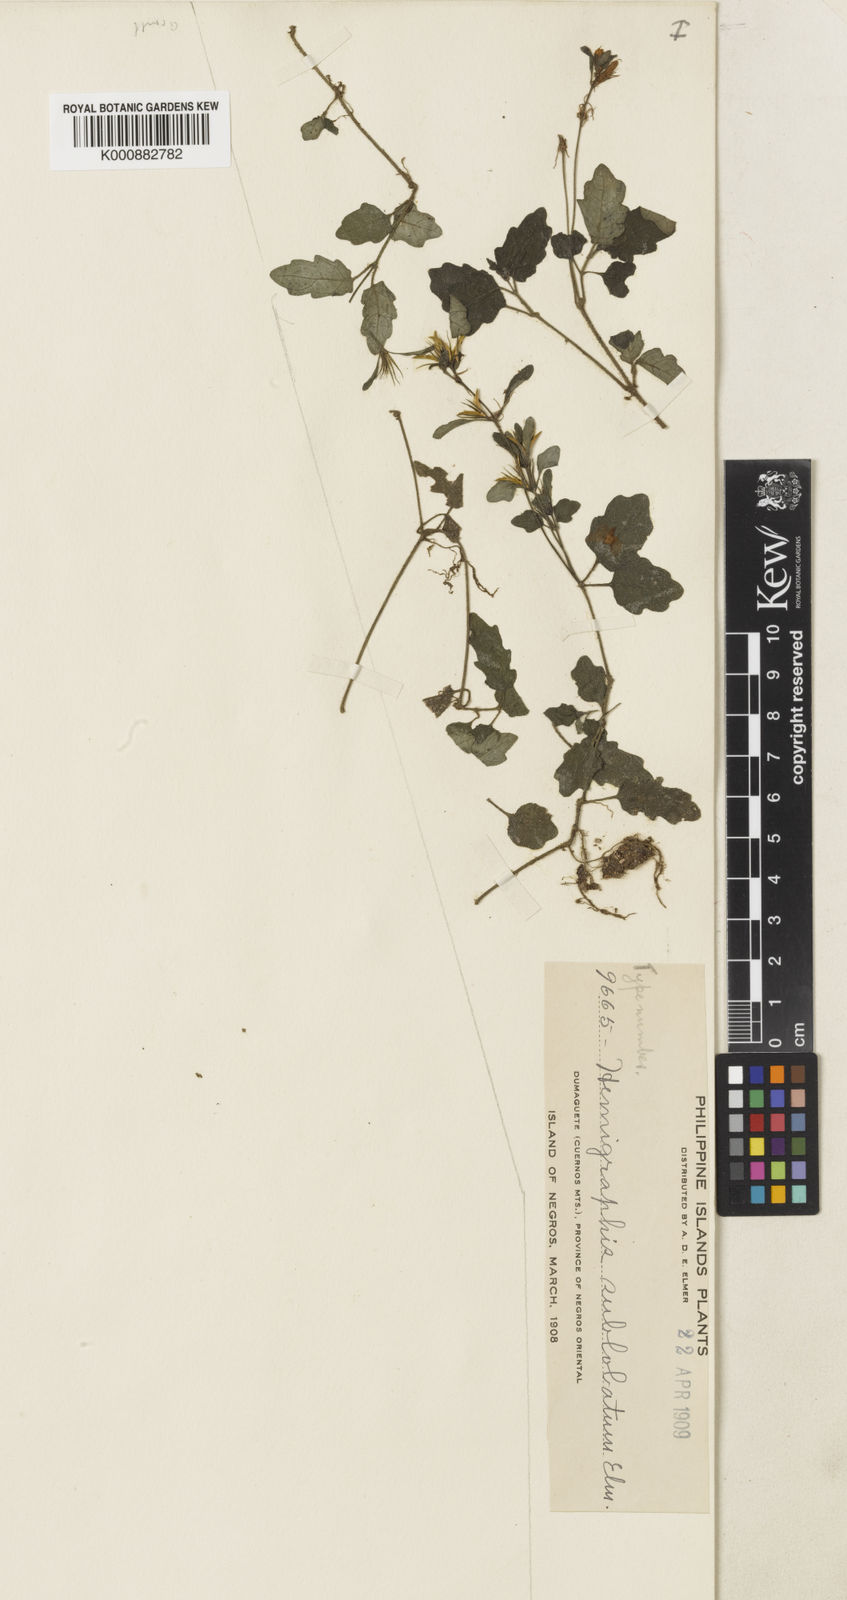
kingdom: Plantae
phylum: Tracheophyta
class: Magnoliopsida
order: Lamiales
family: Acanthaceae
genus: Strobilanthes
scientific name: Strobilanthes reptans
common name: Acanthaceae
